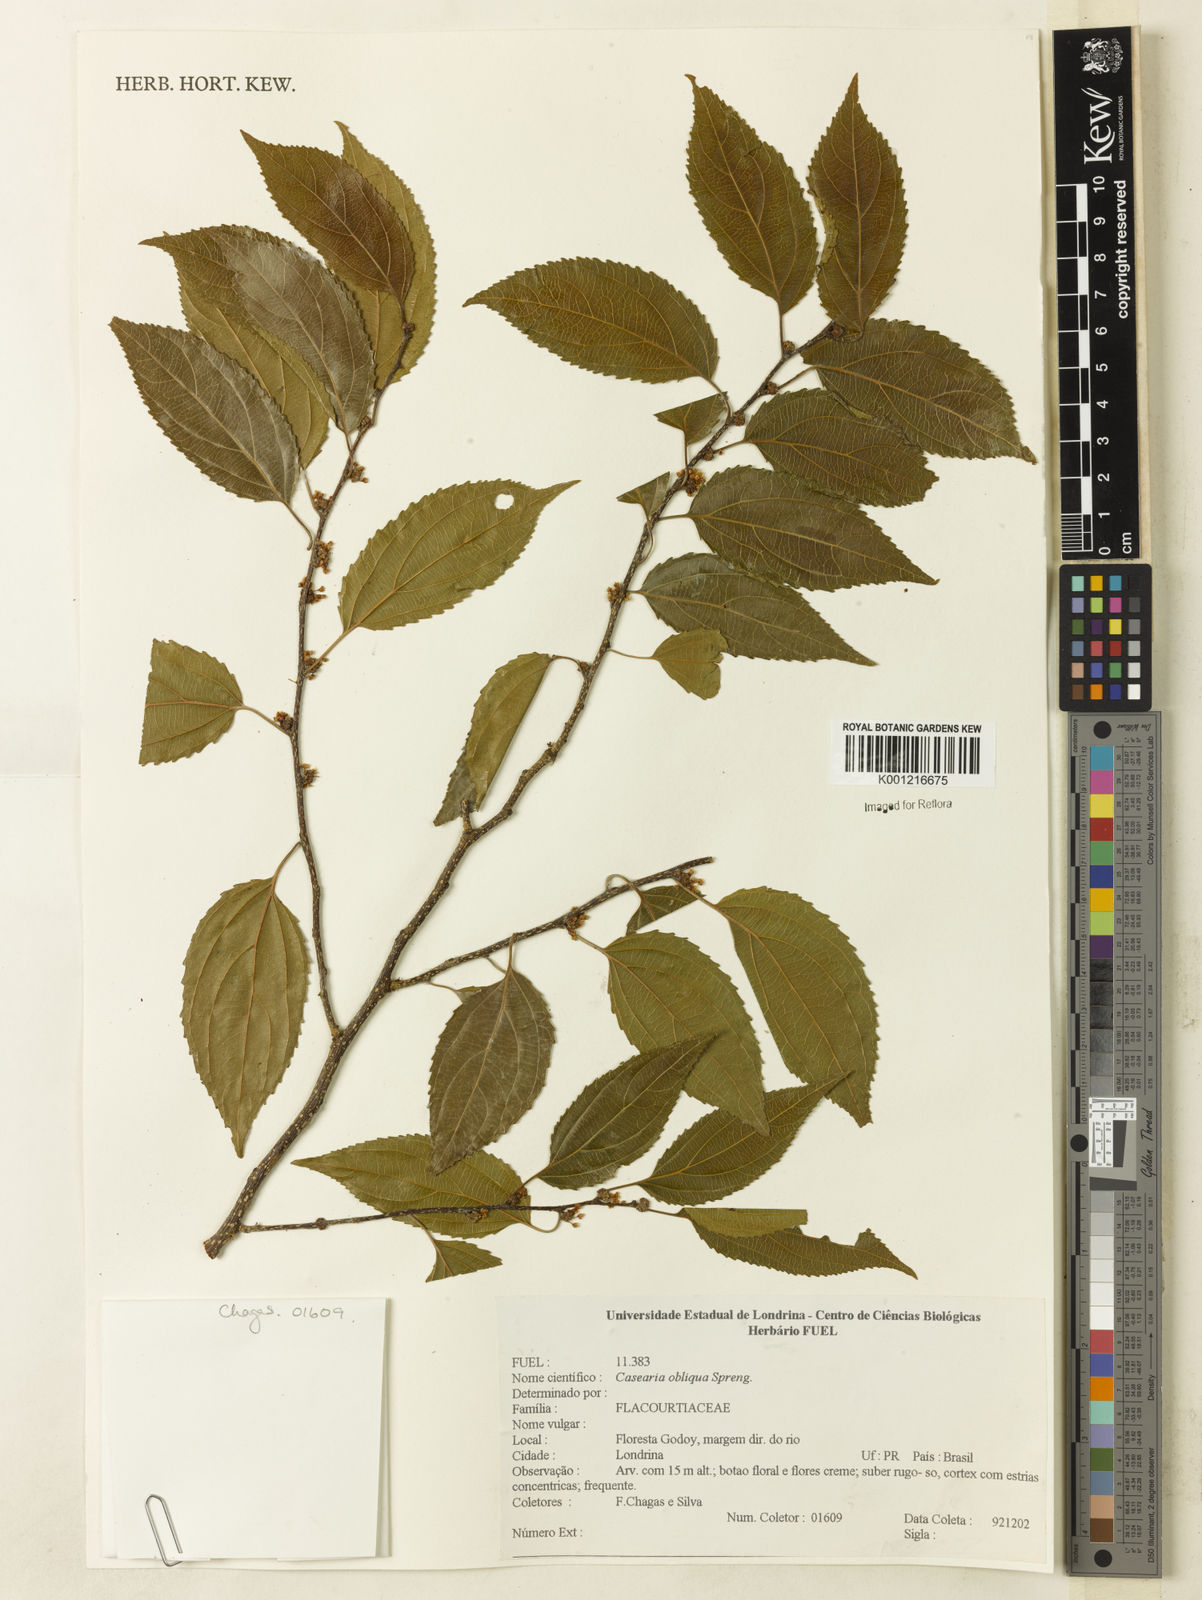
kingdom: Plantae
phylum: Tracheophyta
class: Magnoliopsida
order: Malpighiales
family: Salicaceae
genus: Casearia
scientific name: Casearia obliqua
